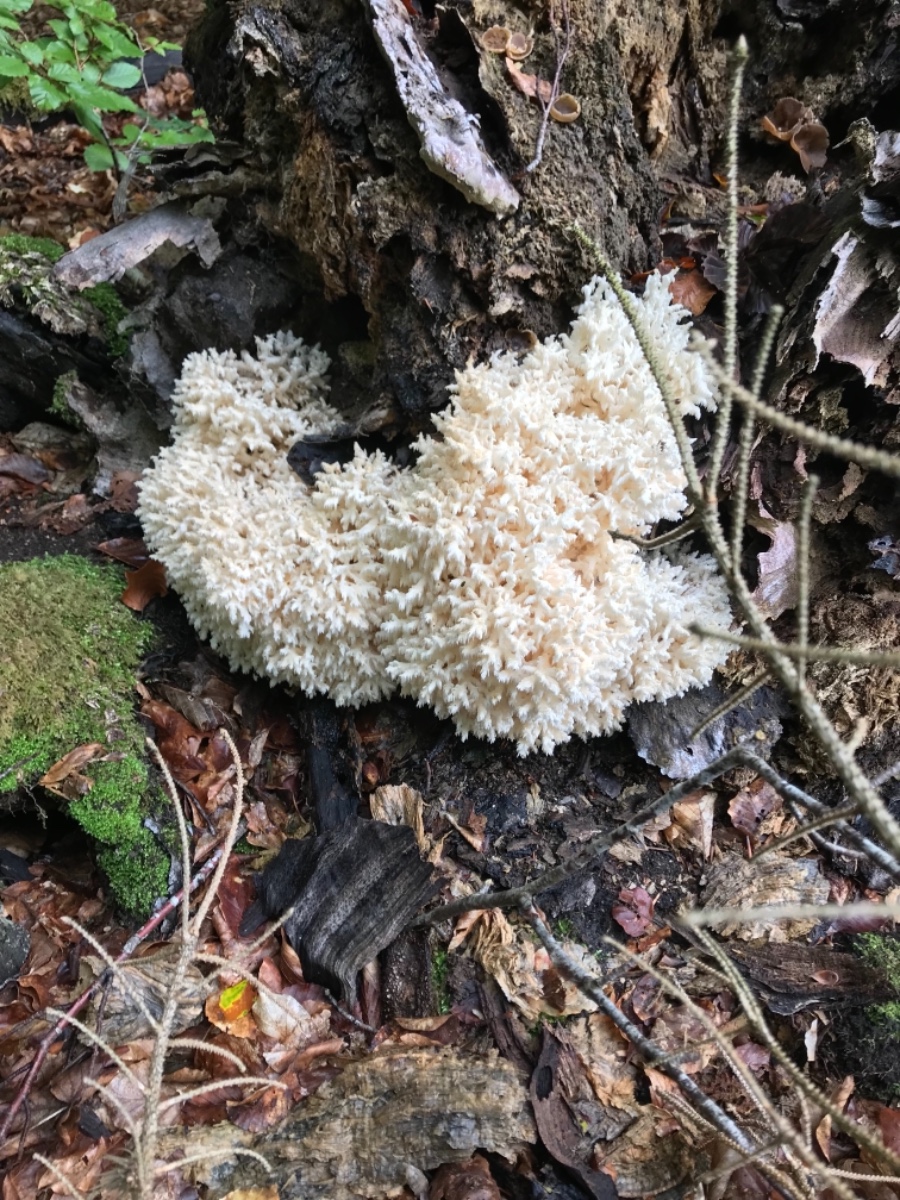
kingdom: Fungi
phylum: Basidiomycota
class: Agaricomycetes
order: Russulales
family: Hericiaceae
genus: Hericium
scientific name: Hericium coralloides
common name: koralpigsvamp
